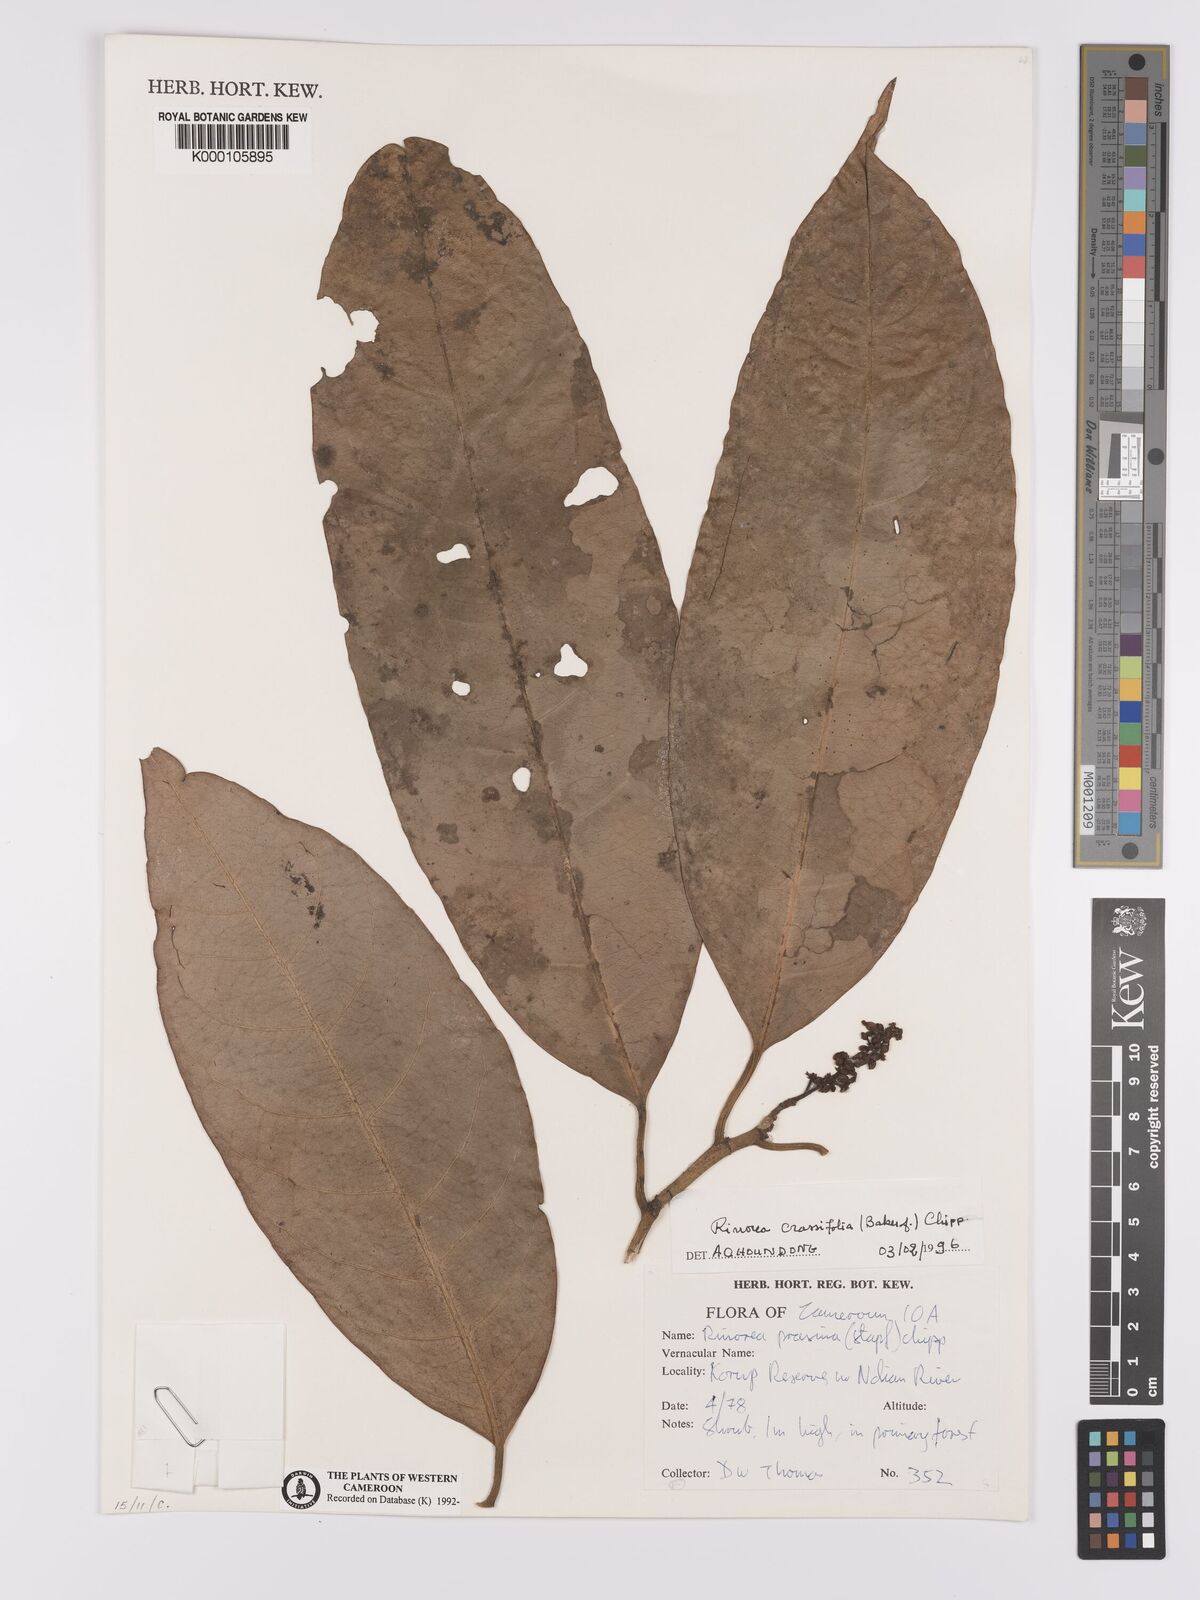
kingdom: Plantae
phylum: Tracheophyta
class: Magnoliopsida
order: Malpighiales
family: Violaceae
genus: Rinorea
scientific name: Rinorea crassifolia
